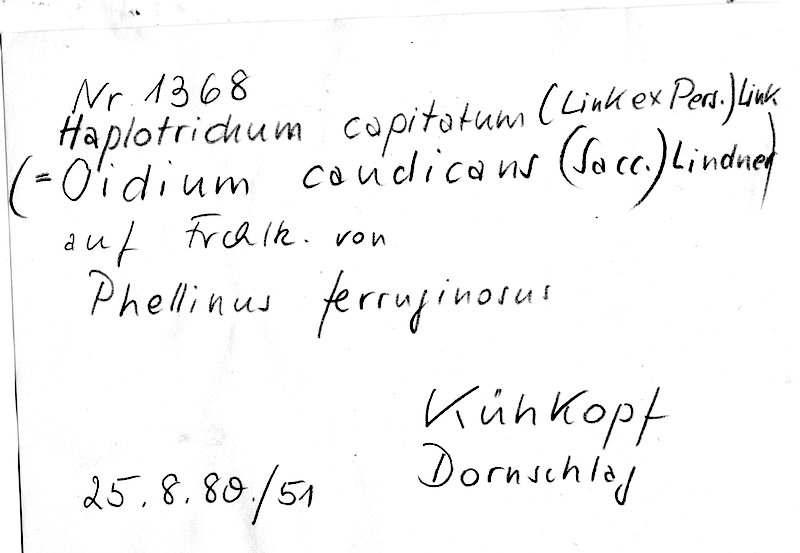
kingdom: Fungi
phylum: Basidiomycota
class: Agaricomycetes
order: Cantharellales
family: Botryobasidiaceae
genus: Botryobasidium
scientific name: Botryobasidium candicans
